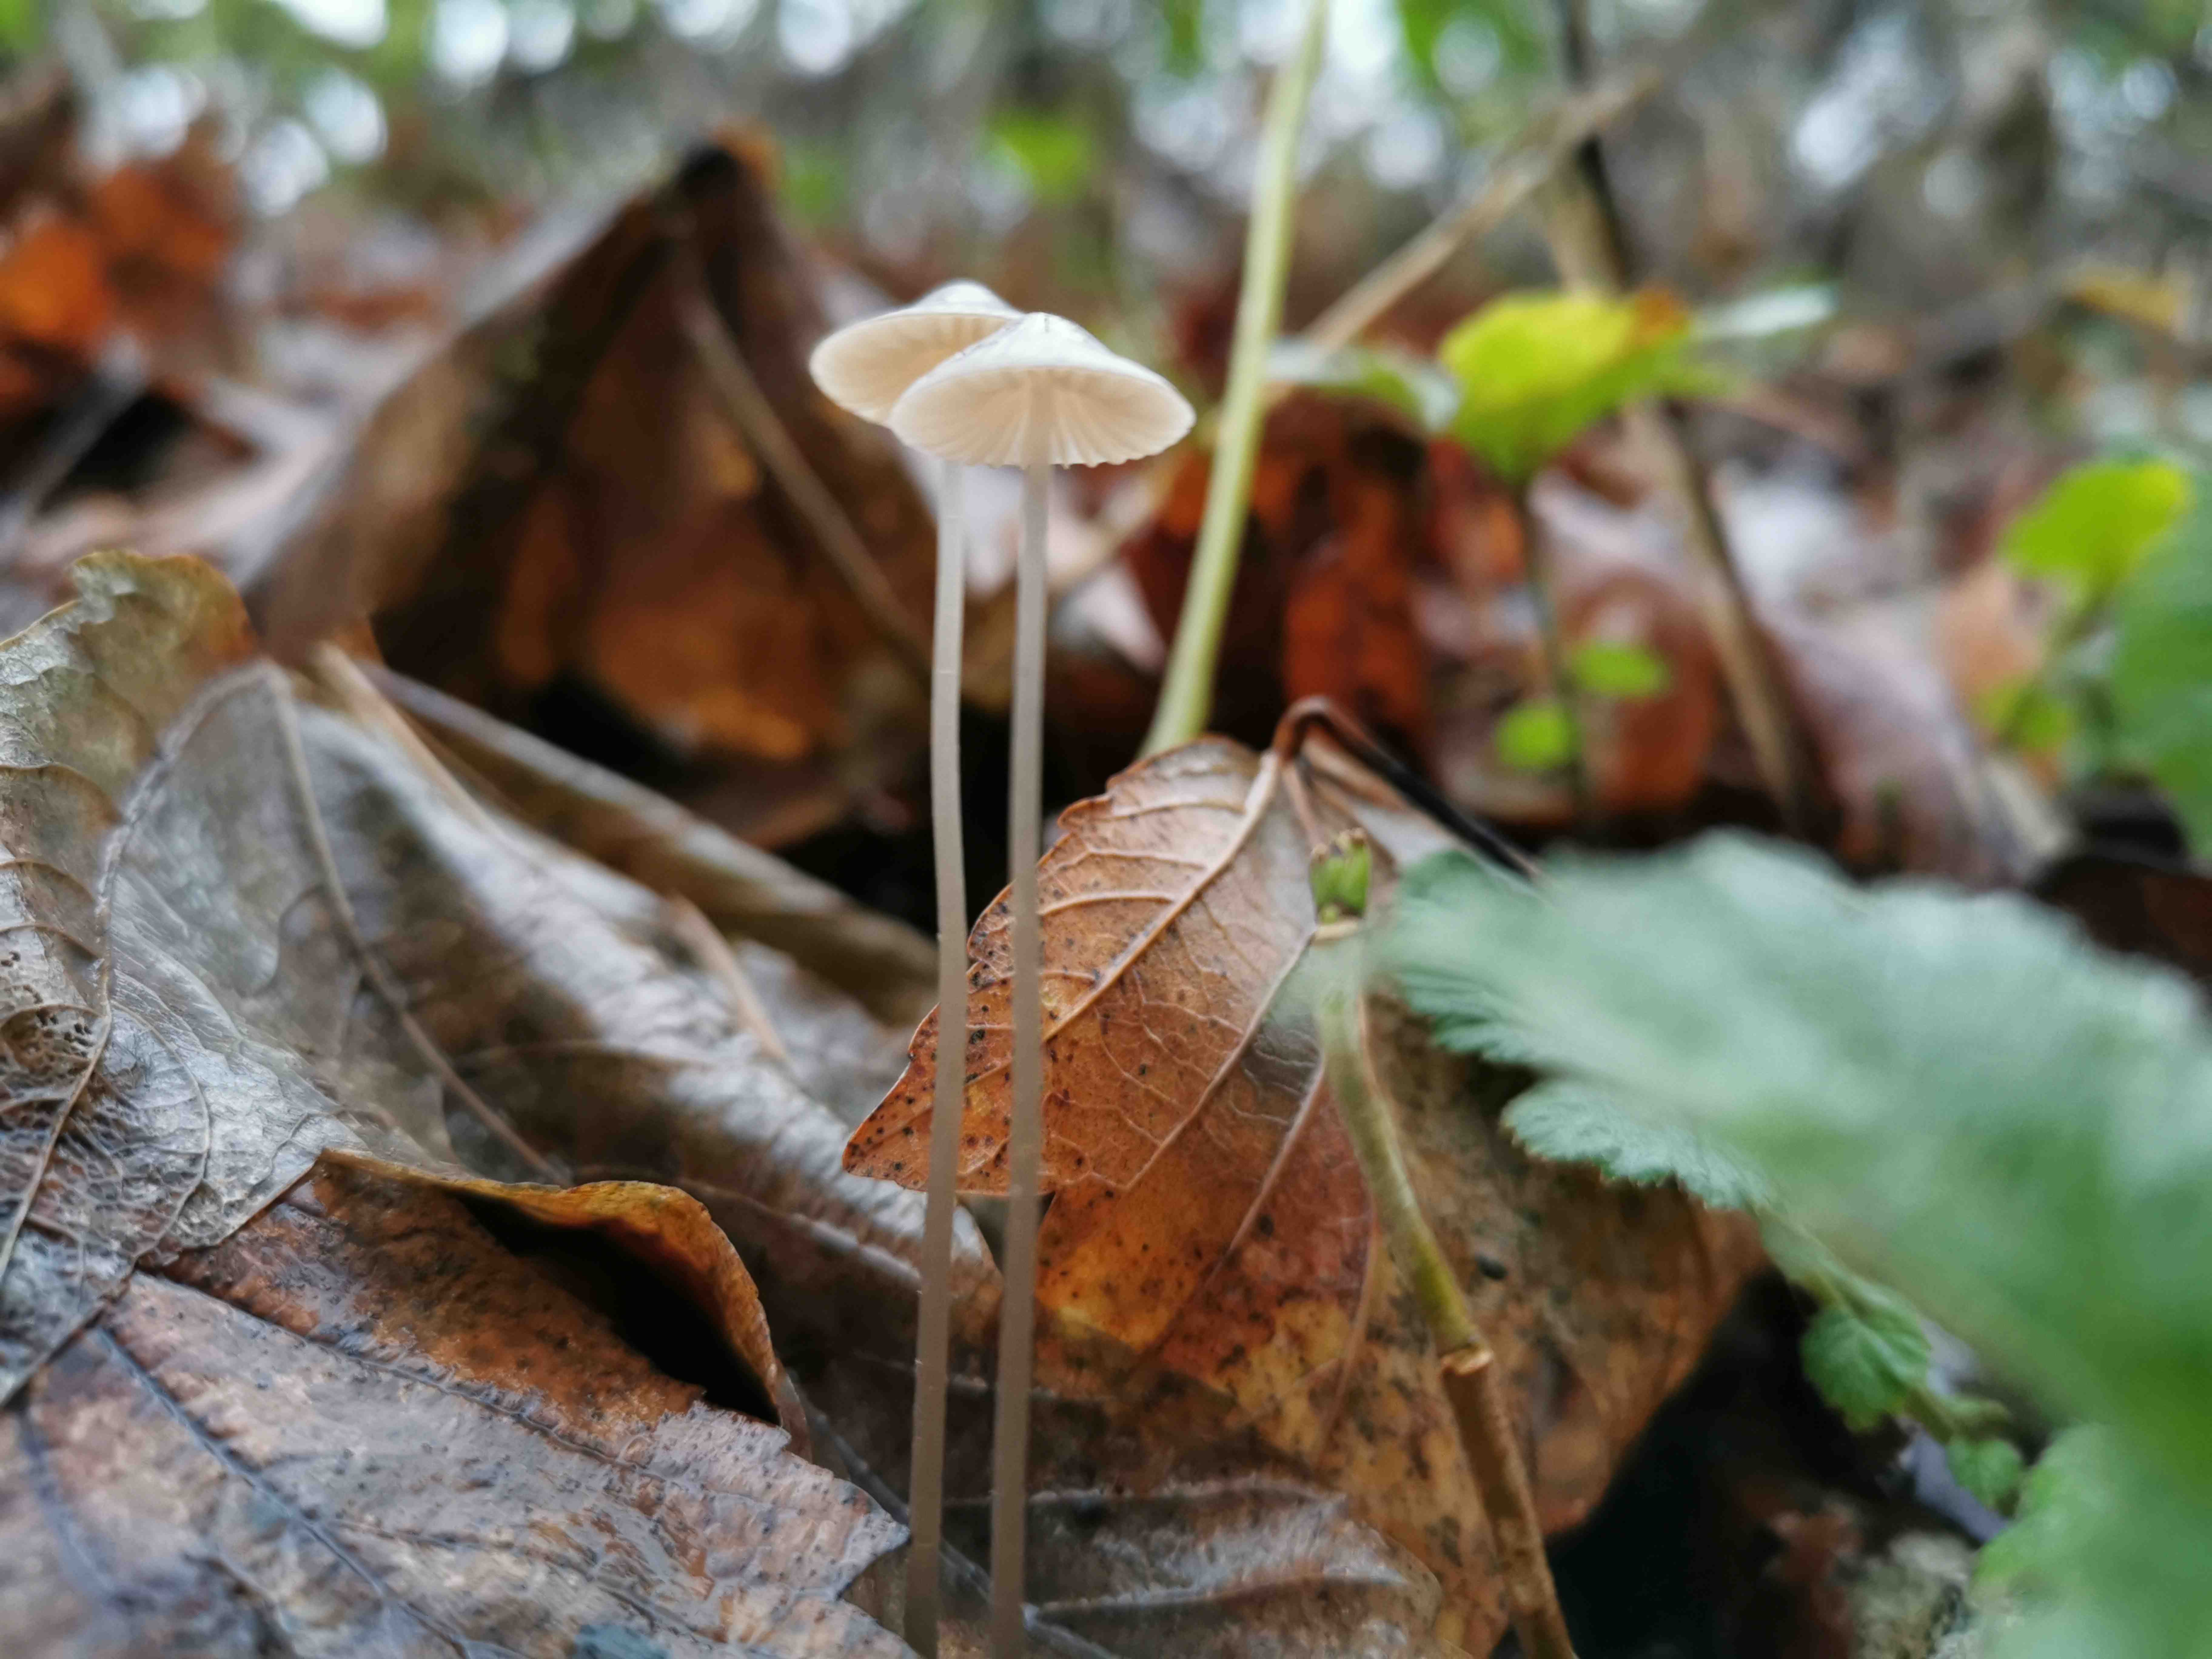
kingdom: Fungi
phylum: Basidiomycota
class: Agaricomycetes
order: Agaricales
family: Mycenaceae
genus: Mycena
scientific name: Mycena vitilis
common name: blankstokket huesvamp
